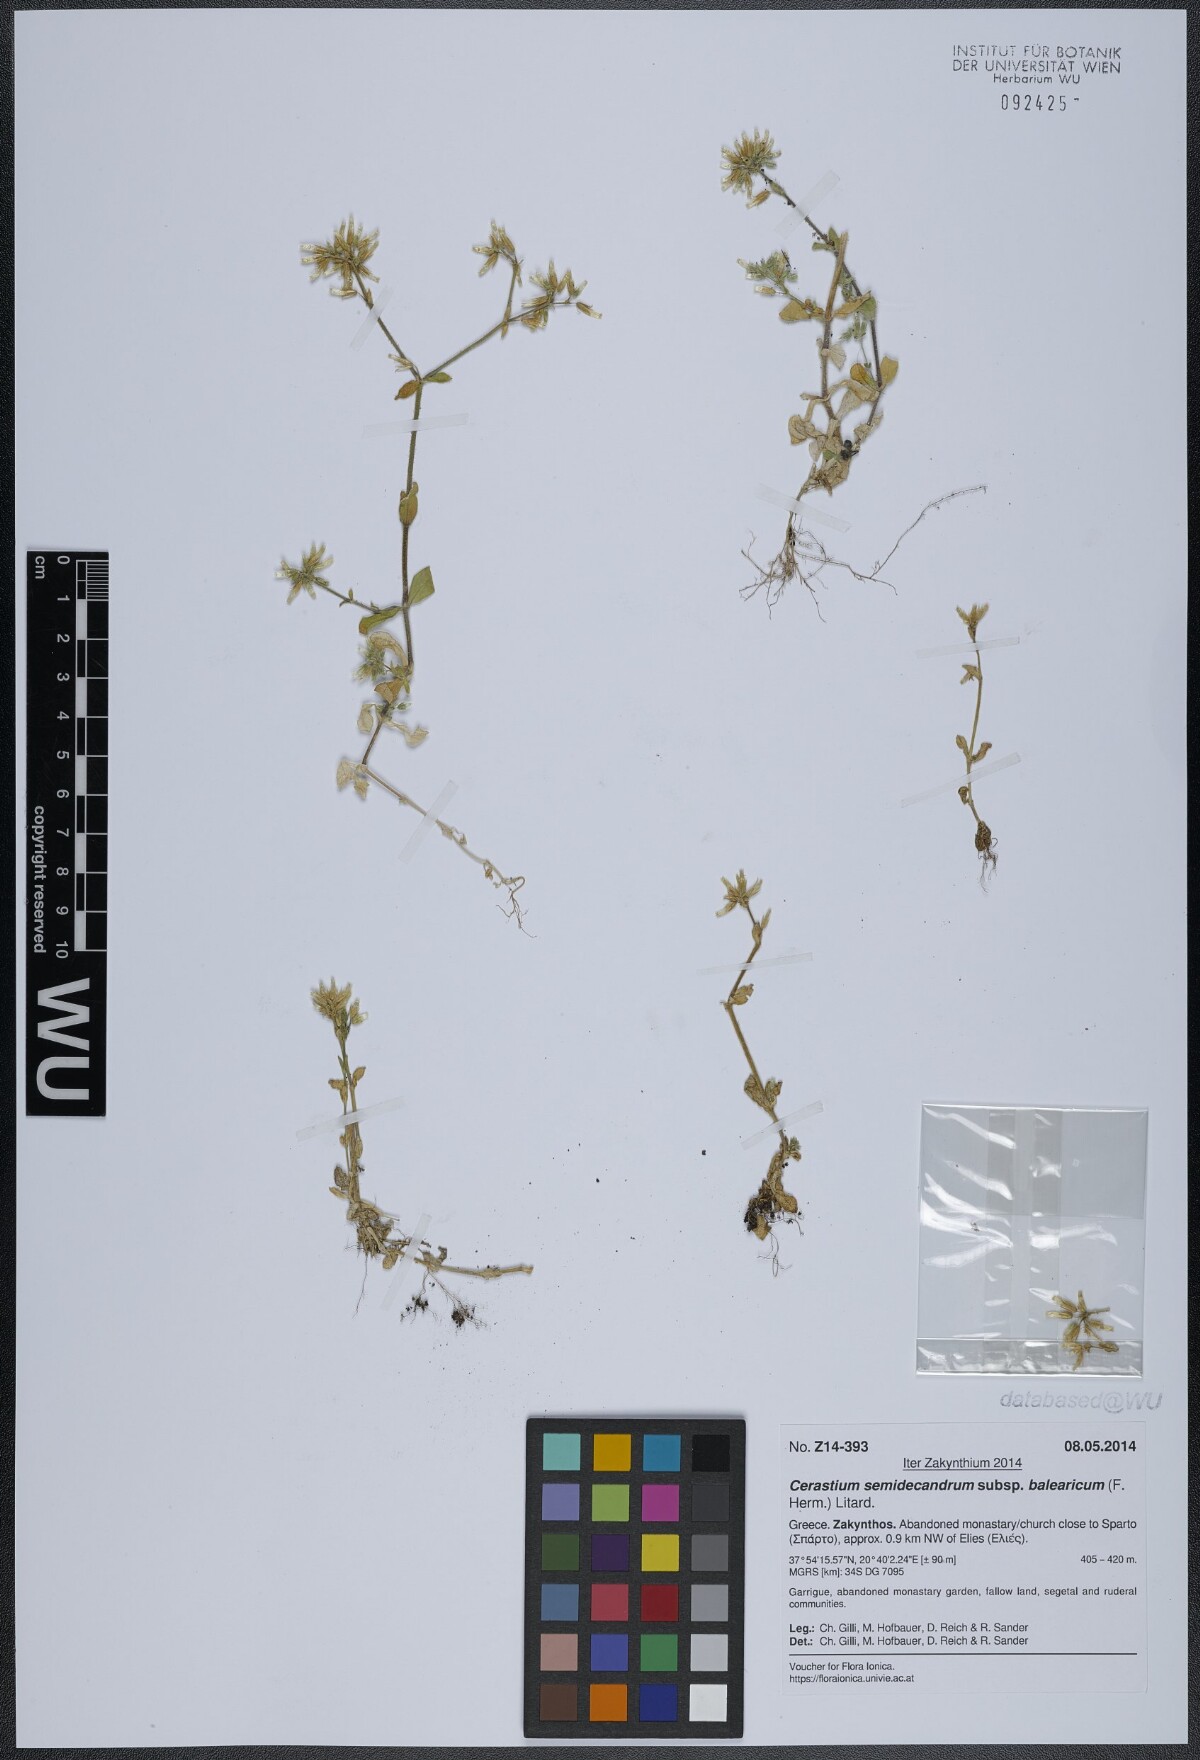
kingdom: Plantae
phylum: Tracheophyta
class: Magnoliopsida
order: Caryophyllales
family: Caryophyllaceae
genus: Cerastium
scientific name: Cerastium semidecandrum
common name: Little mouse-ear
